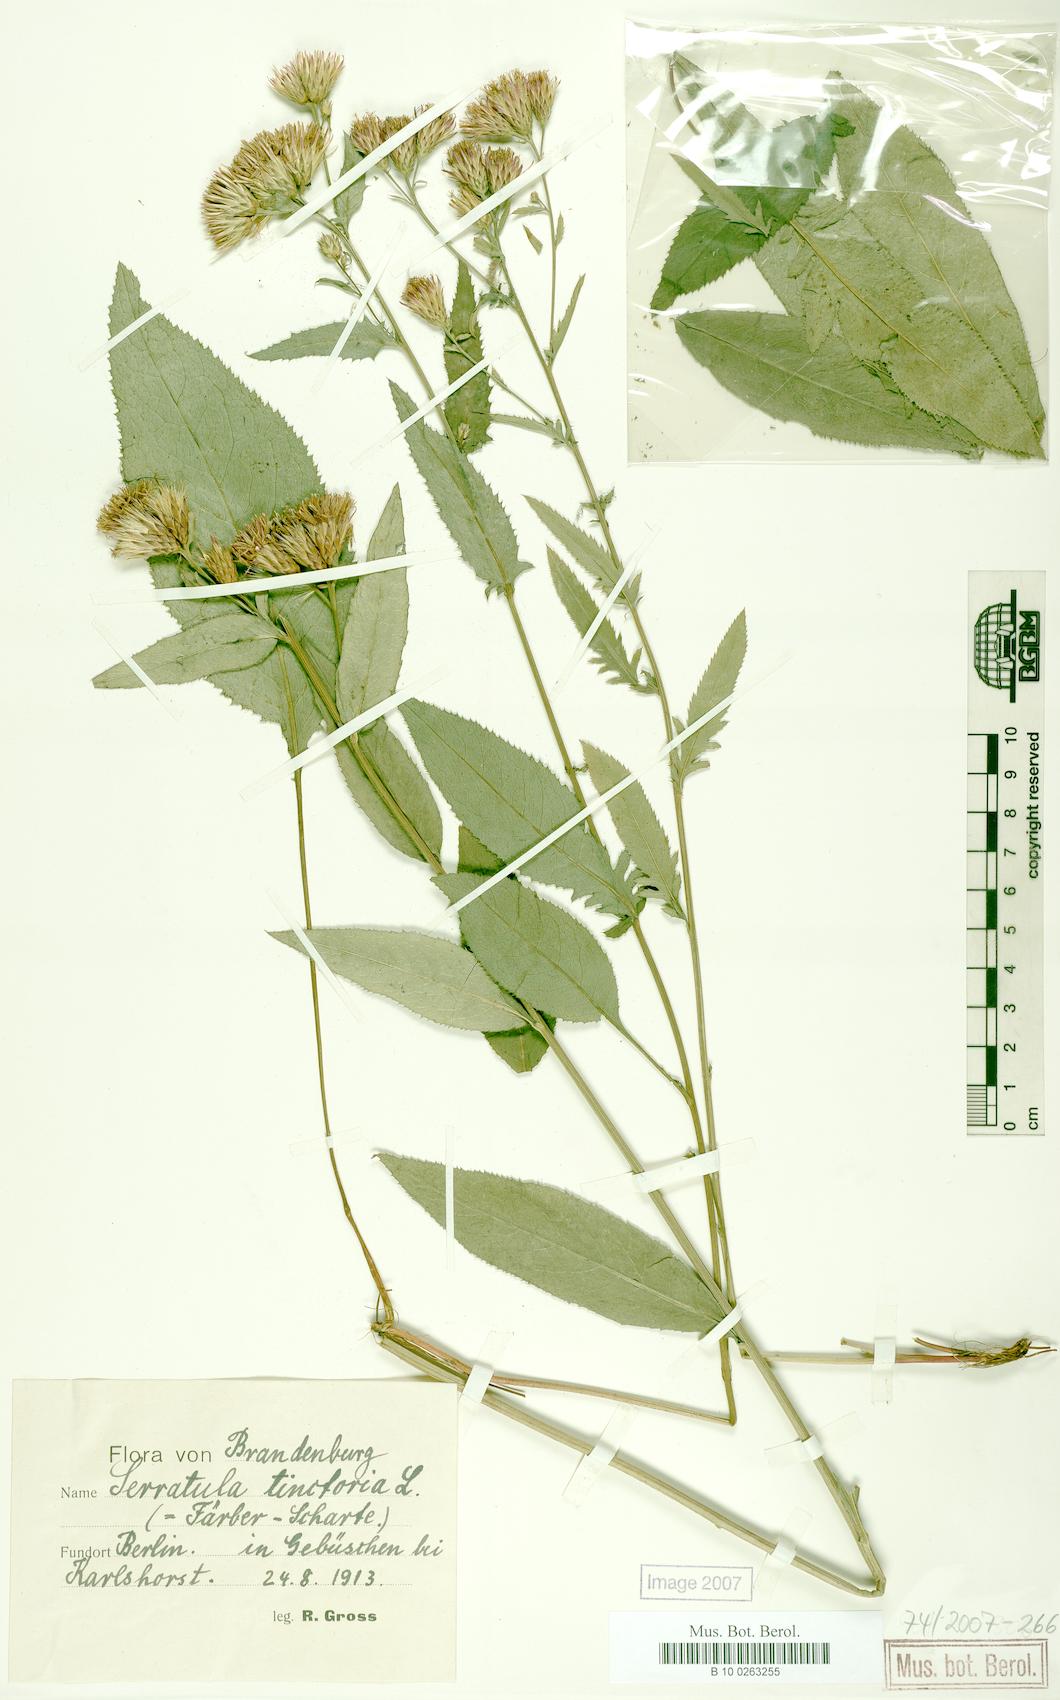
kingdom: Plantae
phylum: Tracheophyta
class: Magnoliopsida
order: Asterales
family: Asteraceae
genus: Serratula
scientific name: Serratula tinctoria
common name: Saw-wort
